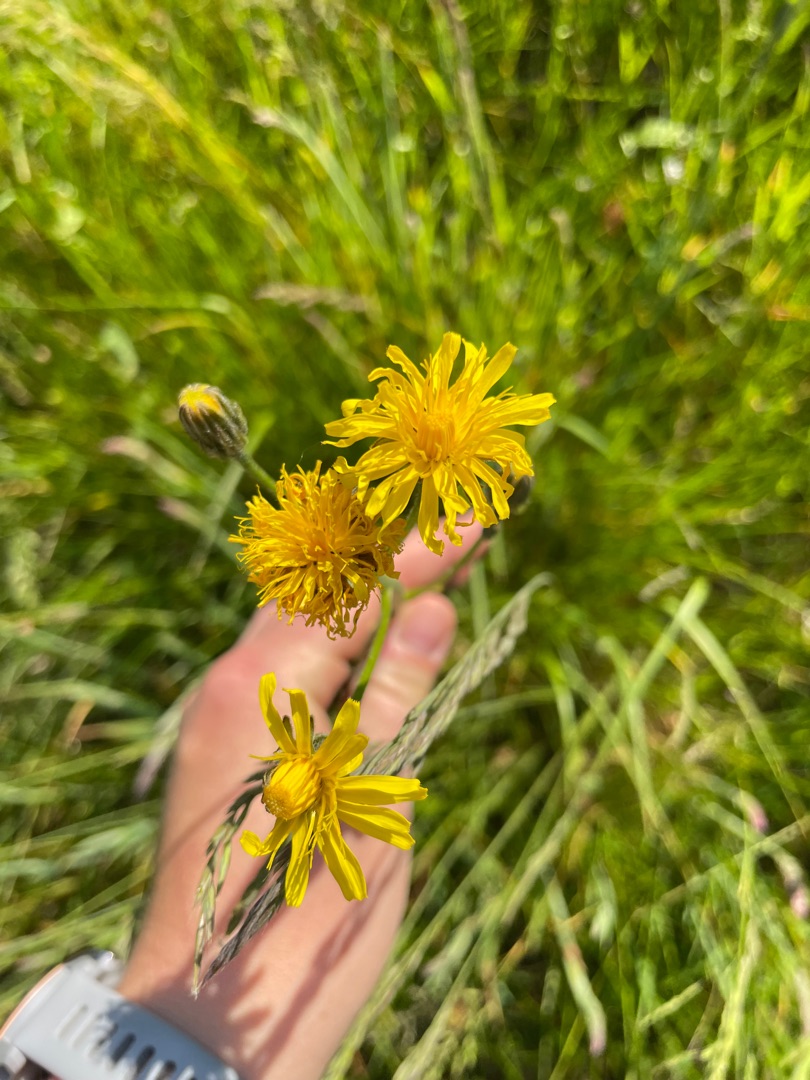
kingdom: Plantae
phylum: Tracheophyta
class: Magnoliopsida
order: Asterales
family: Asteraceae
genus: Sonchus
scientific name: Sonchus arvensis
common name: Ager-svinemælk
